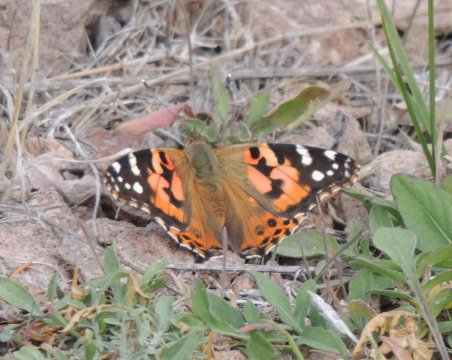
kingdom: Animalia
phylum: Arthropoda
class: Insecta
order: Lepidoptera
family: Nymphalidae
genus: Vanessa
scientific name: Vanessa cardui
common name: Painted Lady
